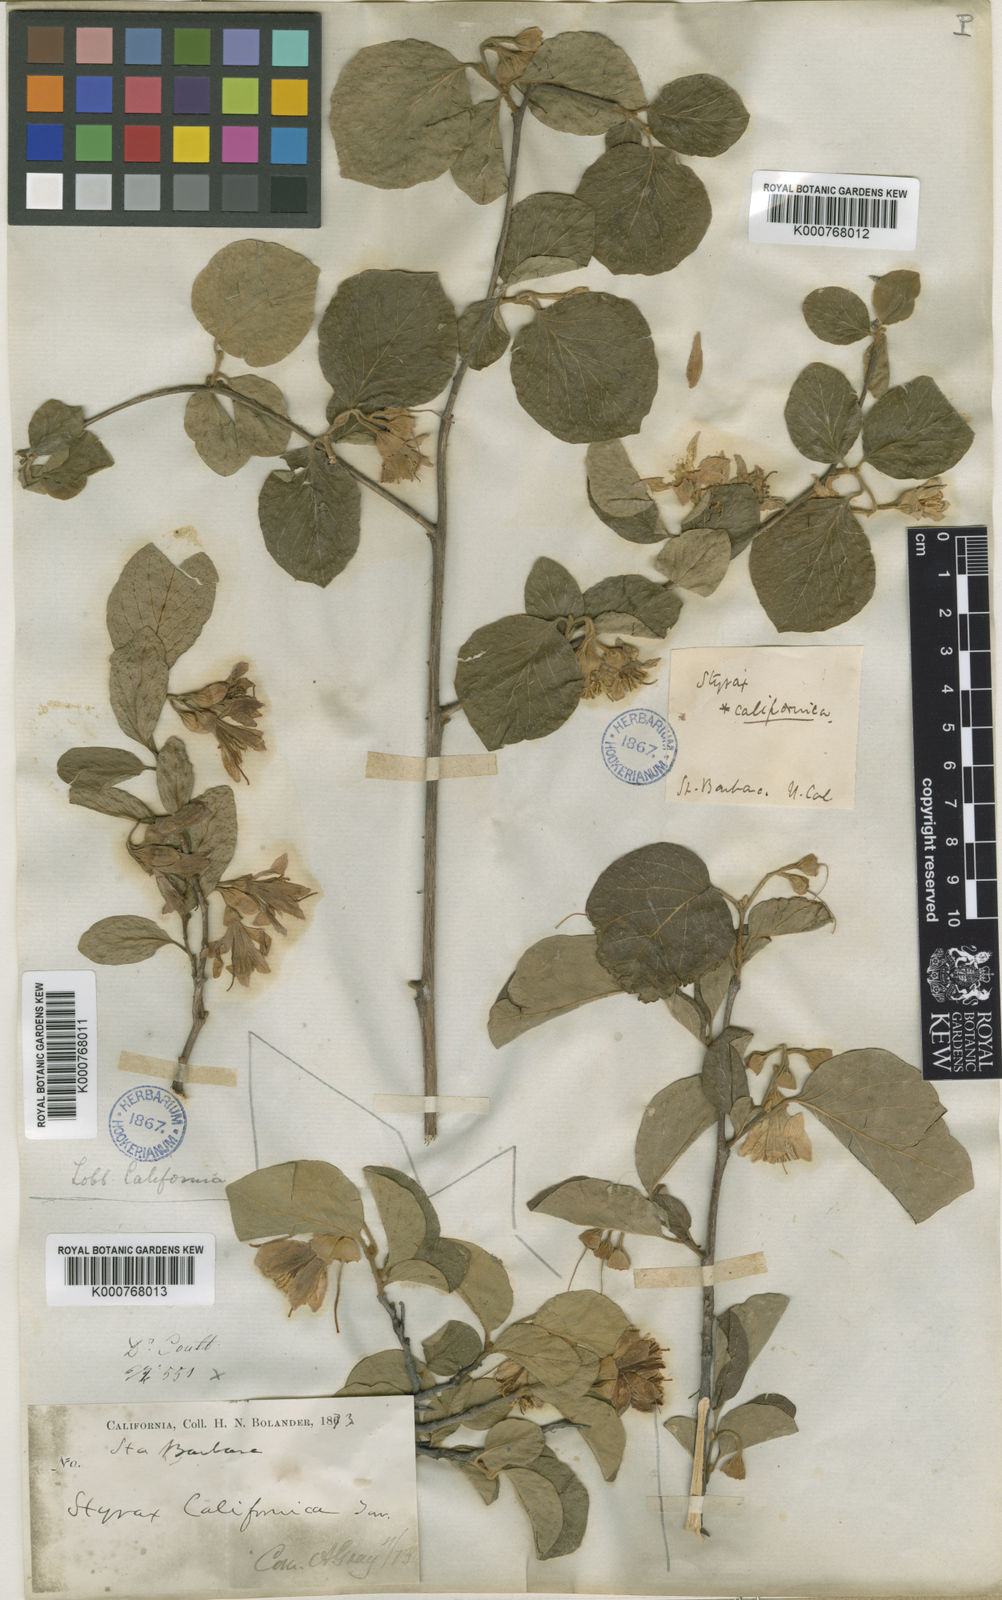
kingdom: Plantae
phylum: Tracheophyta
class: Magnoliopsida
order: Ericales
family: Styracaceae
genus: Styrax
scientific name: Styrax officinalis
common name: Storax
